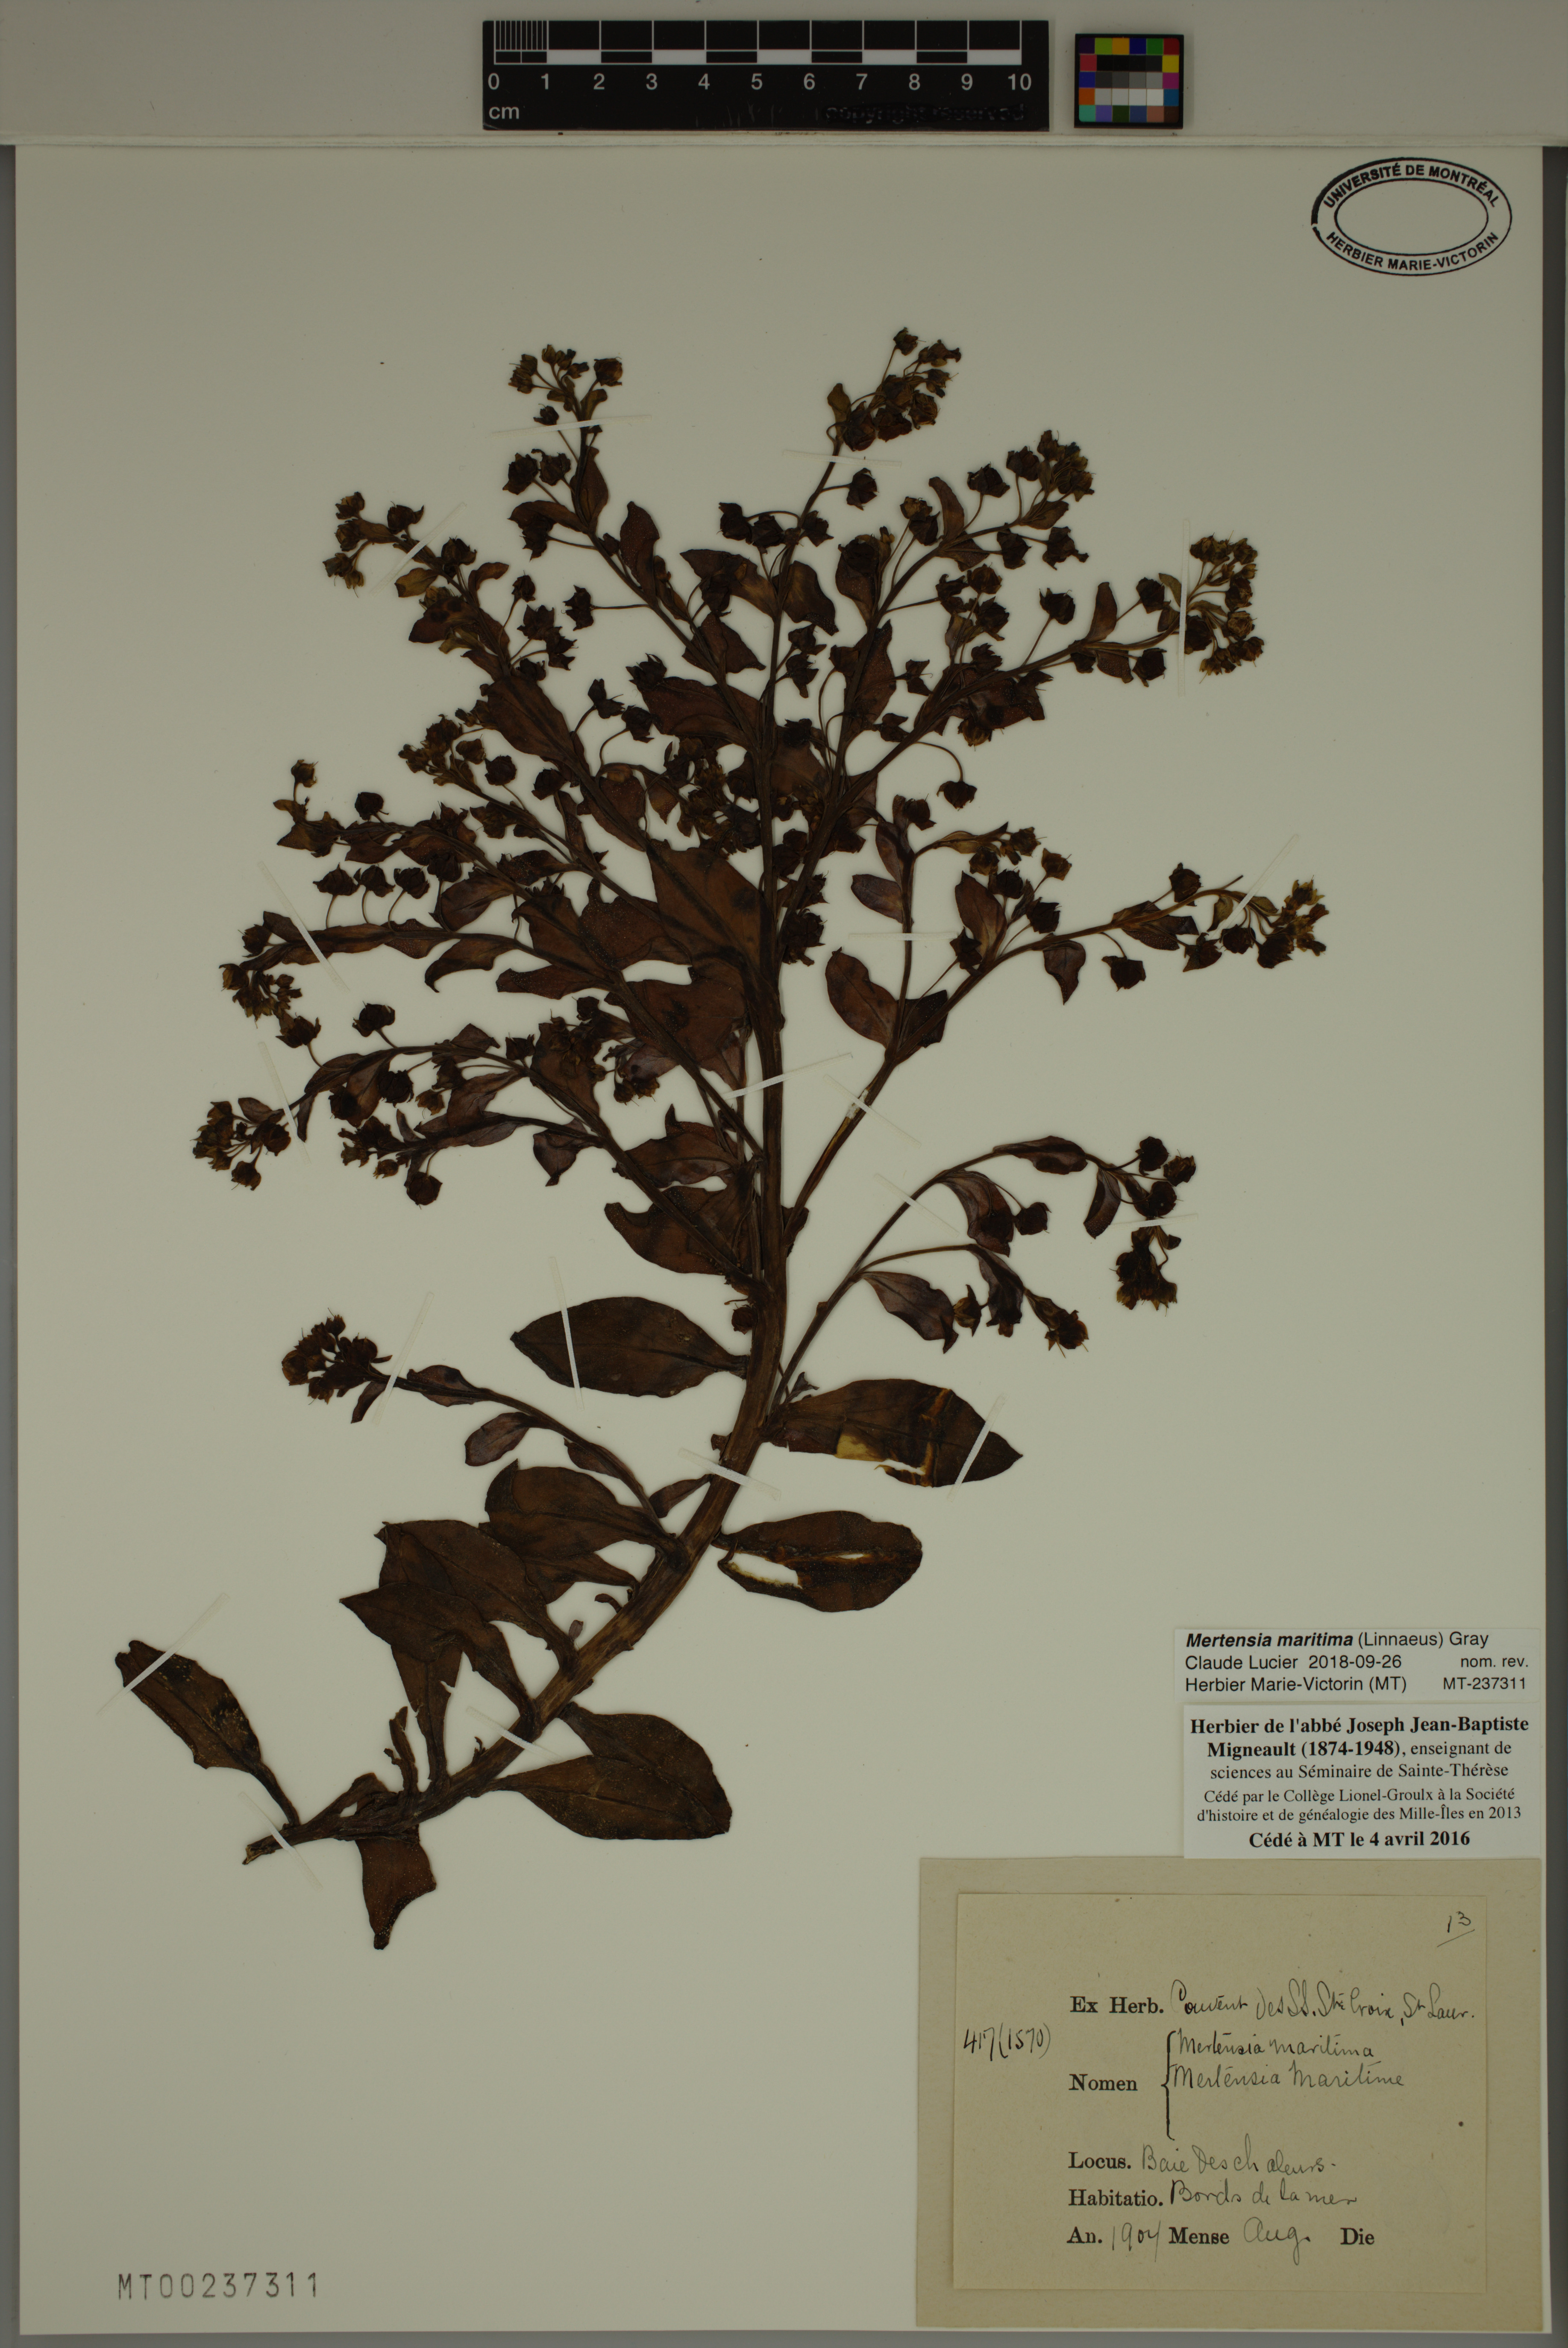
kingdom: Plantae
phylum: Tracheophyta
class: Magnoliopsida
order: Boraginales
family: Boraginaceae
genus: Mertensia
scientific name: Mertensia maritima
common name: Oysterplant
